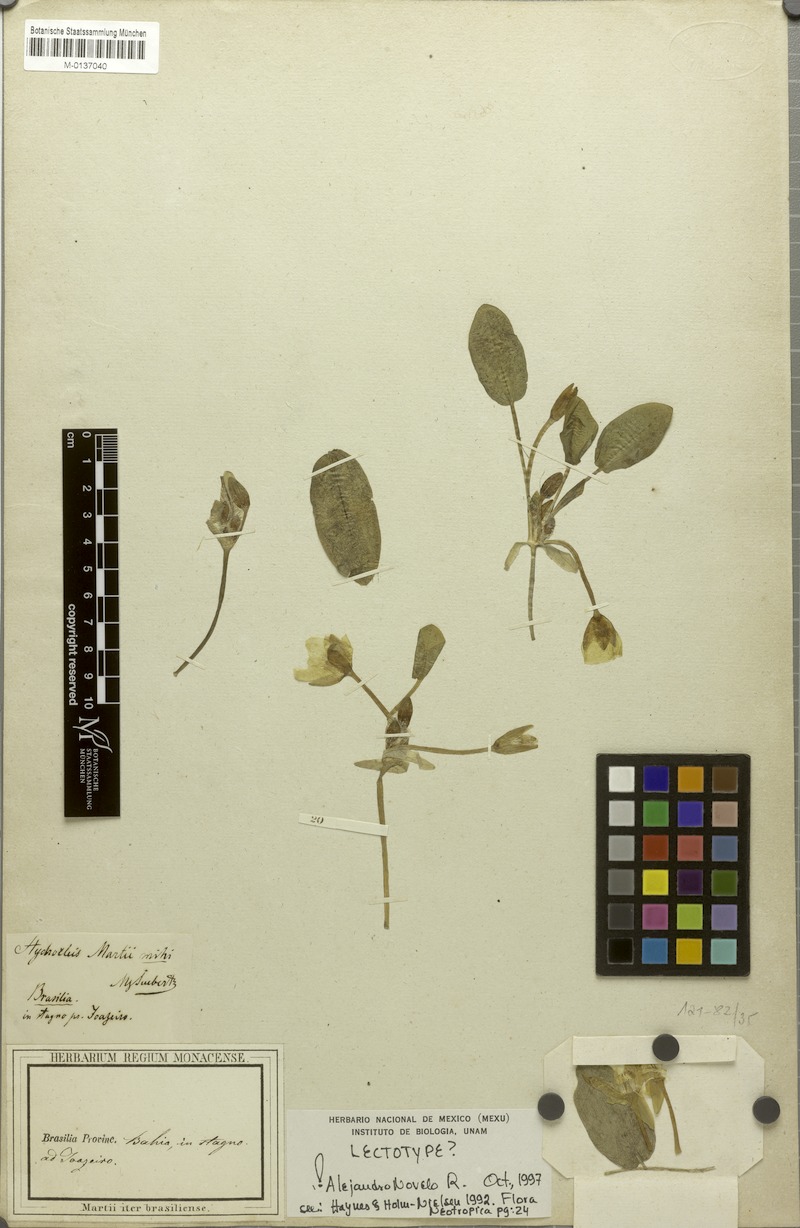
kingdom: Plantae
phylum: Tracheophyta
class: Liliopsida
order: Alismatales
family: Alismataceae
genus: Hydrocleys
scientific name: Hydrocleys martii
